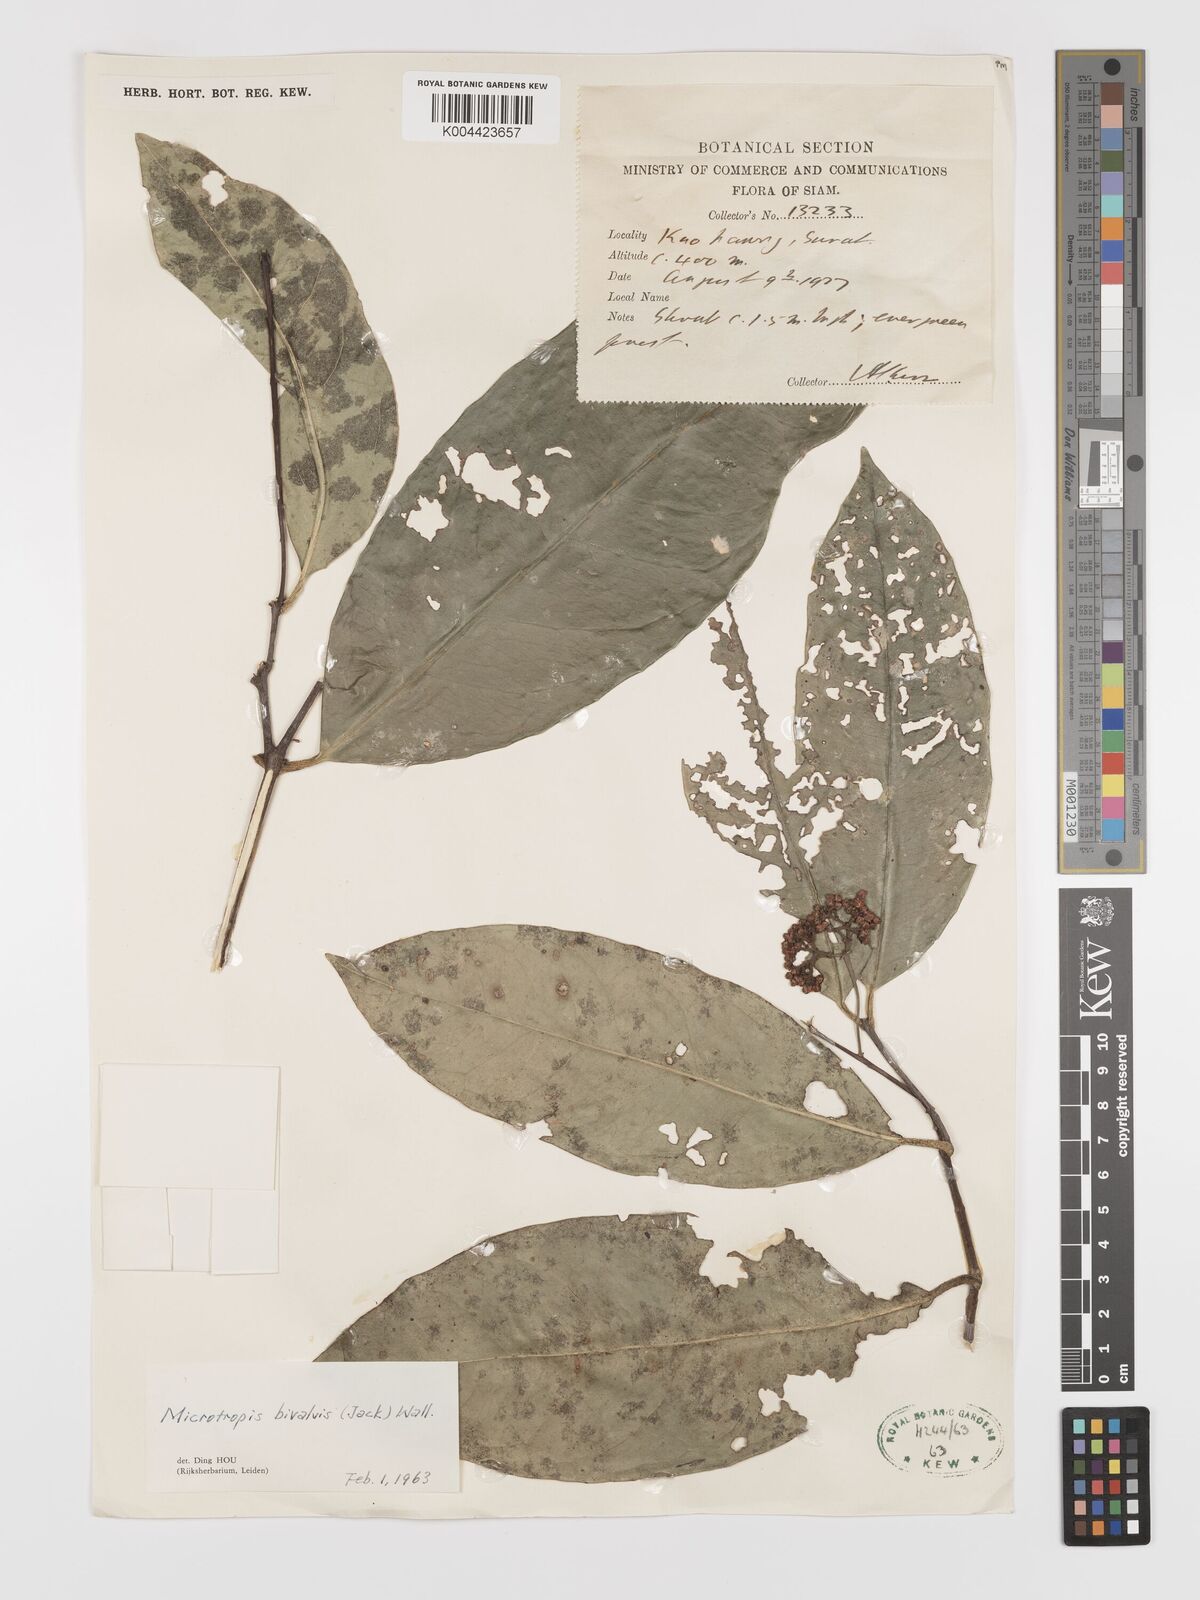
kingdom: Plantae
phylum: Tracheophyta
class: Magnoliopsida
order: Celastrales
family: Celastraceae
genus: Microtropis
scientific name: Microtropis bivalvis
